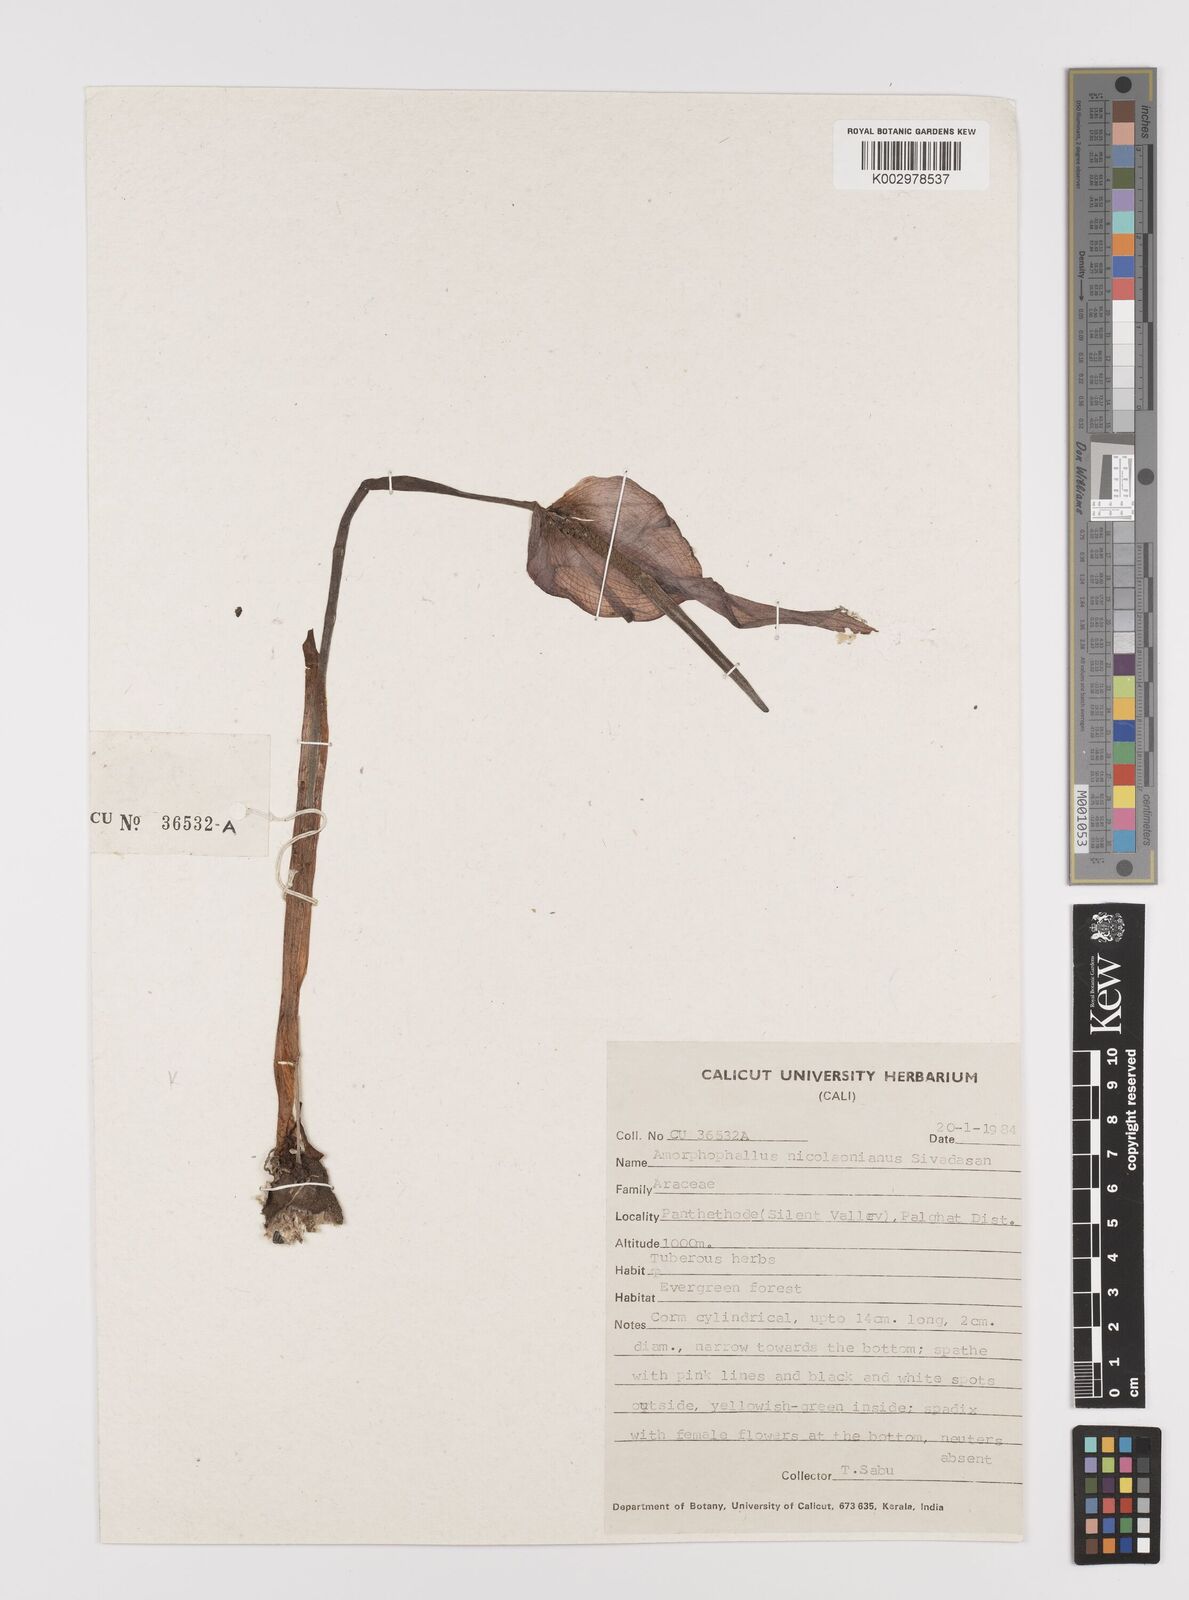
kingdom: Plantae
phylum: Tracheophyta
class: Liliopsida
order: Alismatales
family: Araceae
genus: Amorphophallus
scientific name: Amorphophallus nicolsonianus
